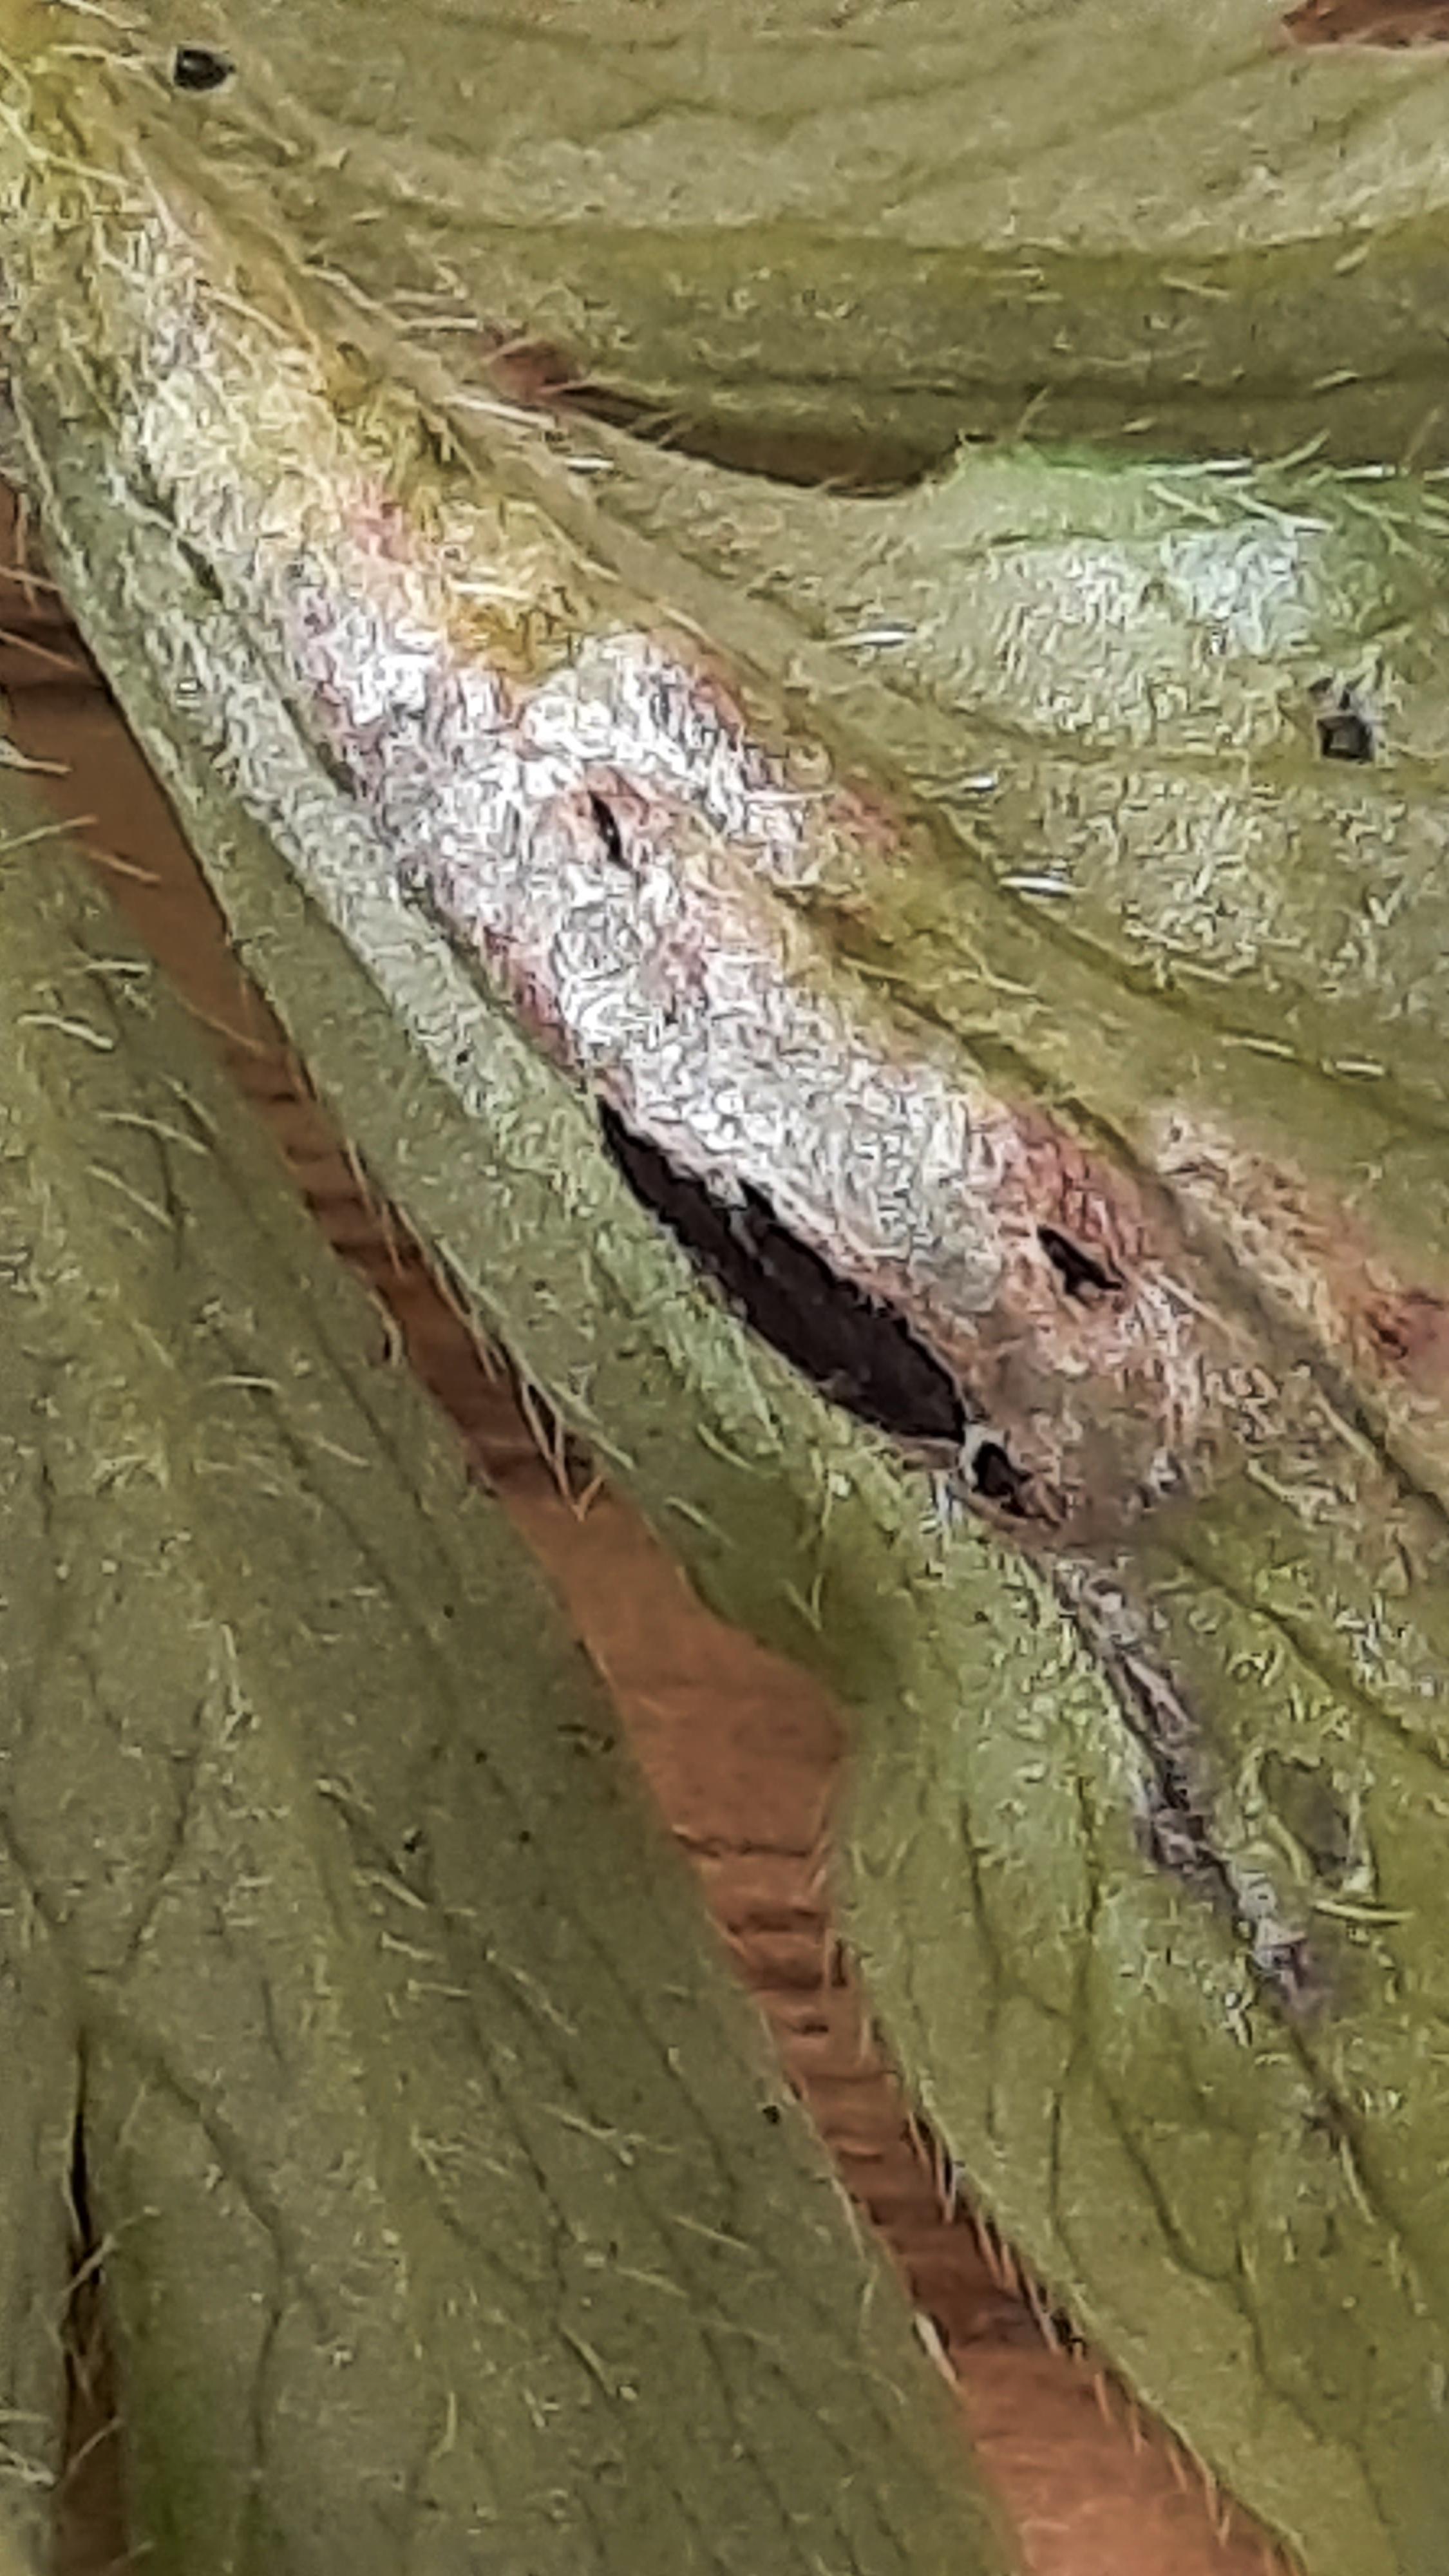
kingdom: Fungi
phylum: Basidiomycota
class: Ustilaginomycetes
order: Urocystidales
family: Urocystidaceae
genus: Urocystis
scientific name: Urocystis anemones
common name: anemone-brand
